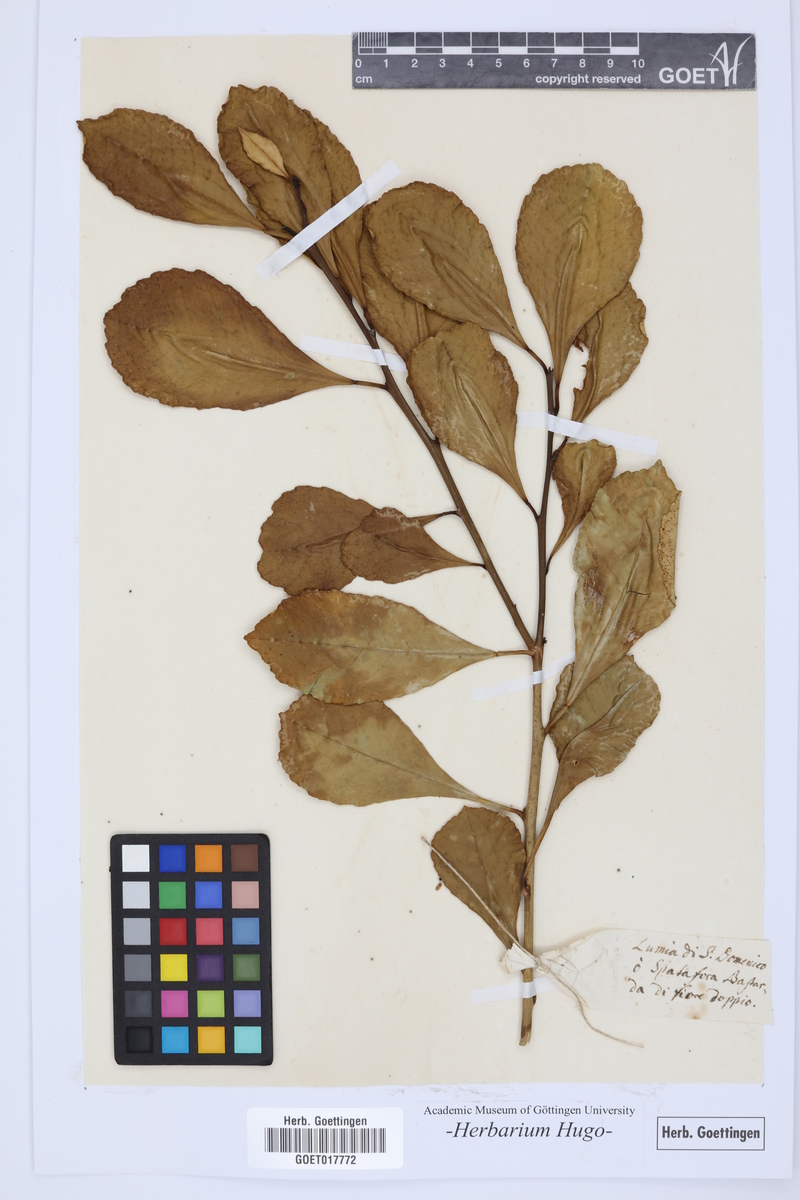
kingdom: Plantae
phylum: Tracheophyta
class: Magnoliopsida
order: Sapindales
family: Rutaceae
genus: Citrus
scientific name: Citrus
